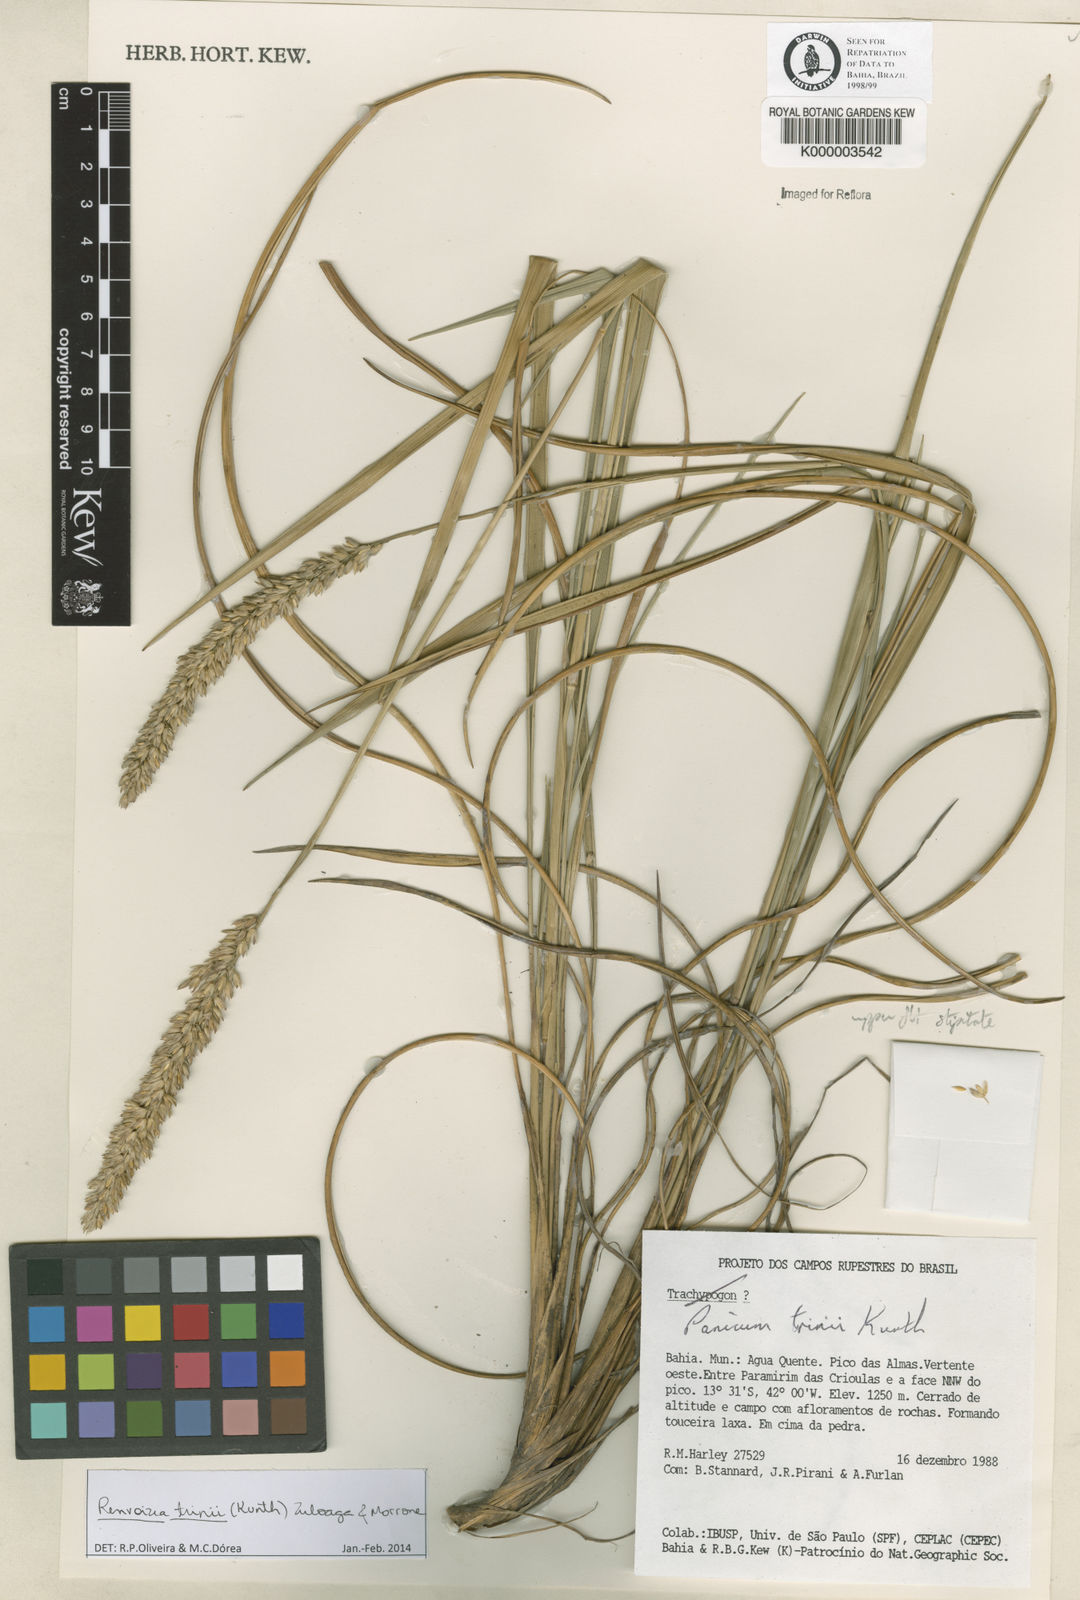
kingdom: Plantae
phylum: Tracheophyta
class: Liliopsida
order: Poales
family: Poaceae
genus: Renvoizea
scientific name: Renvoizea trinii
